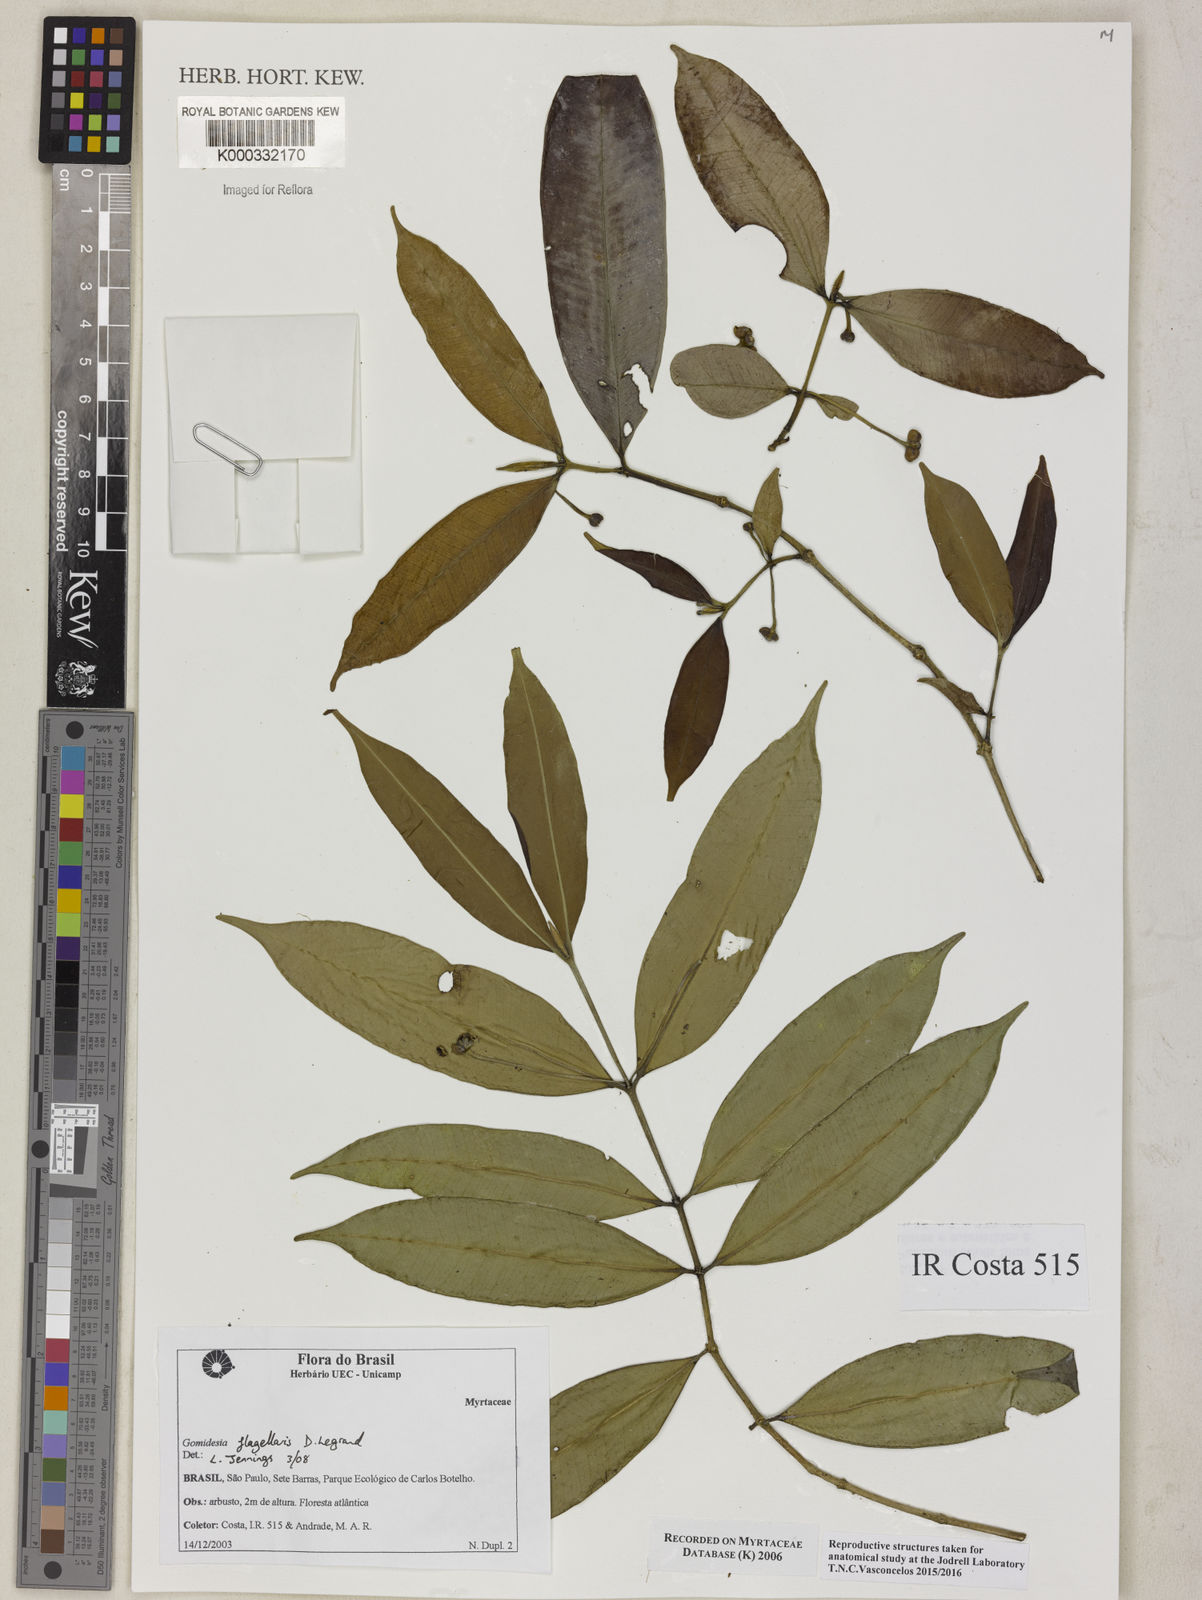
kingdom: Plantae
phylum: Tracheophyta
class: Magnoliopsida
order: Myrtales
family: Myrtaceae
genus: Myrcia
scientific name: Myrcia
